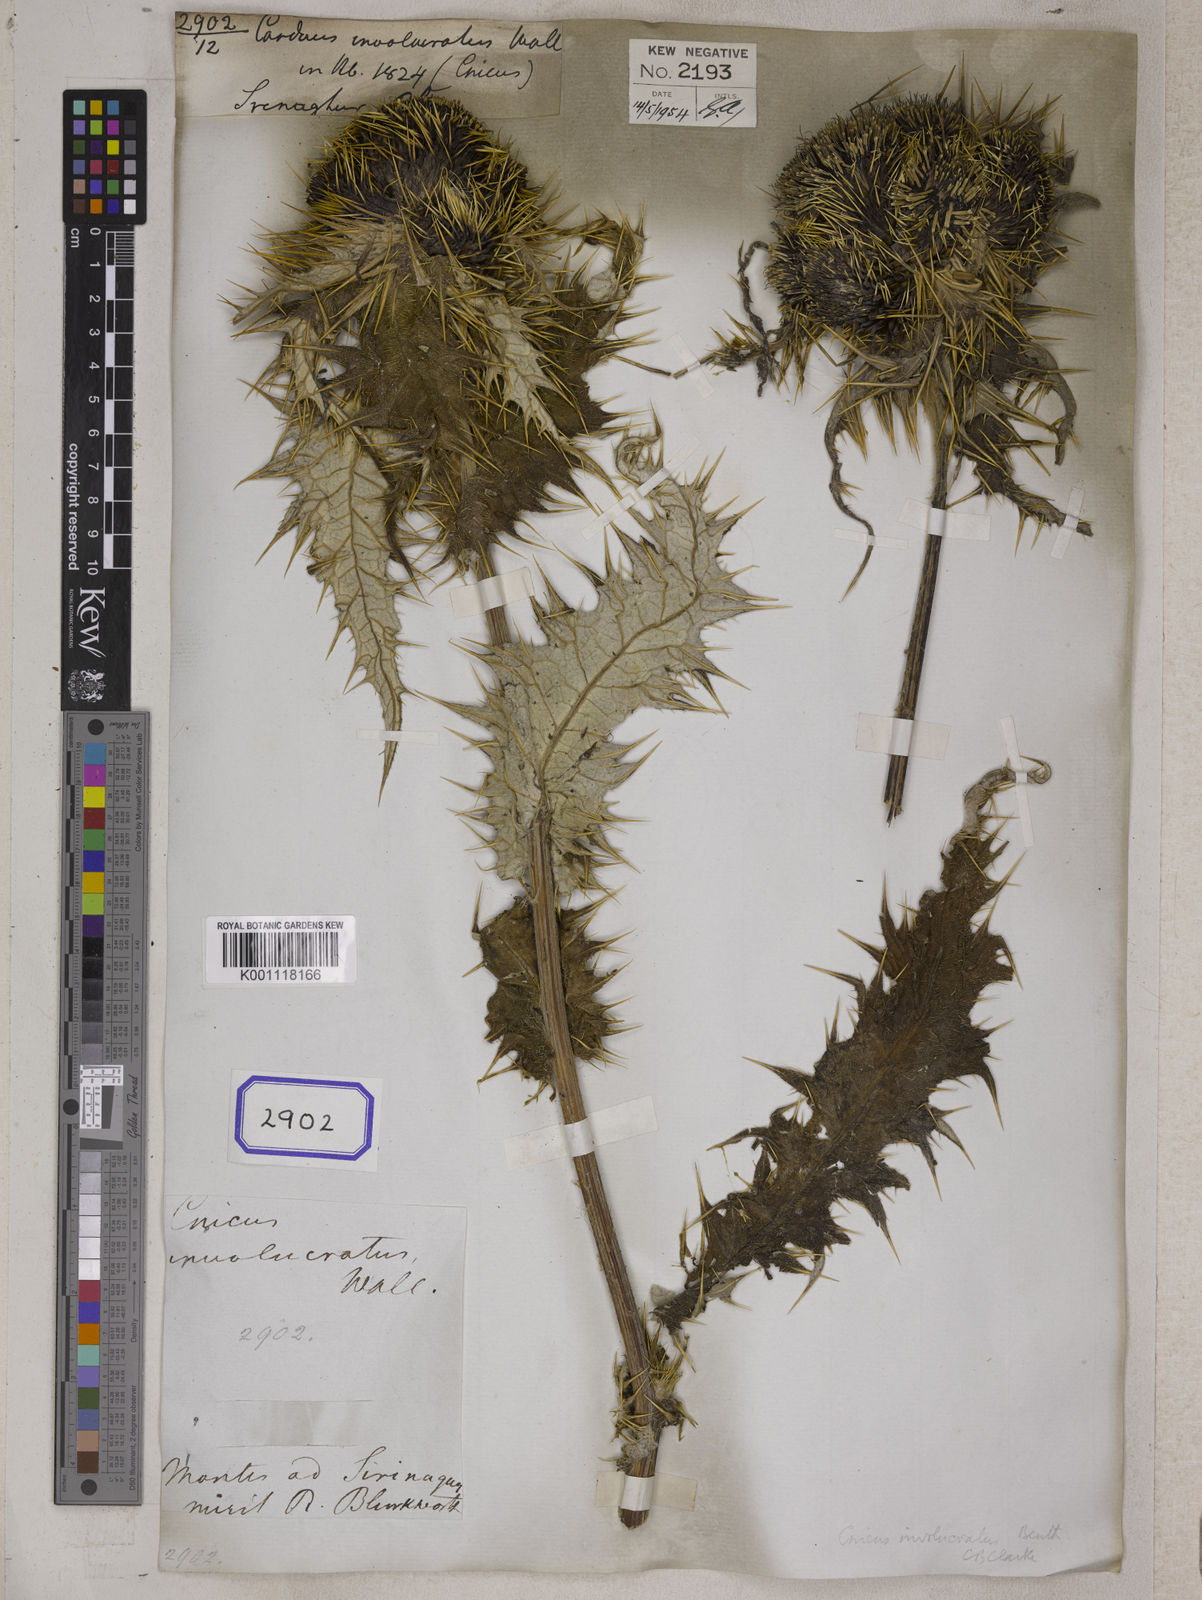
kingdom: Plantae
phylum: Tracheophyta
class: Magnoliopsida
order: Asterales
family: Asteraceae
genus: Lophiolepis
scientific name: Lophiolepis veruta
